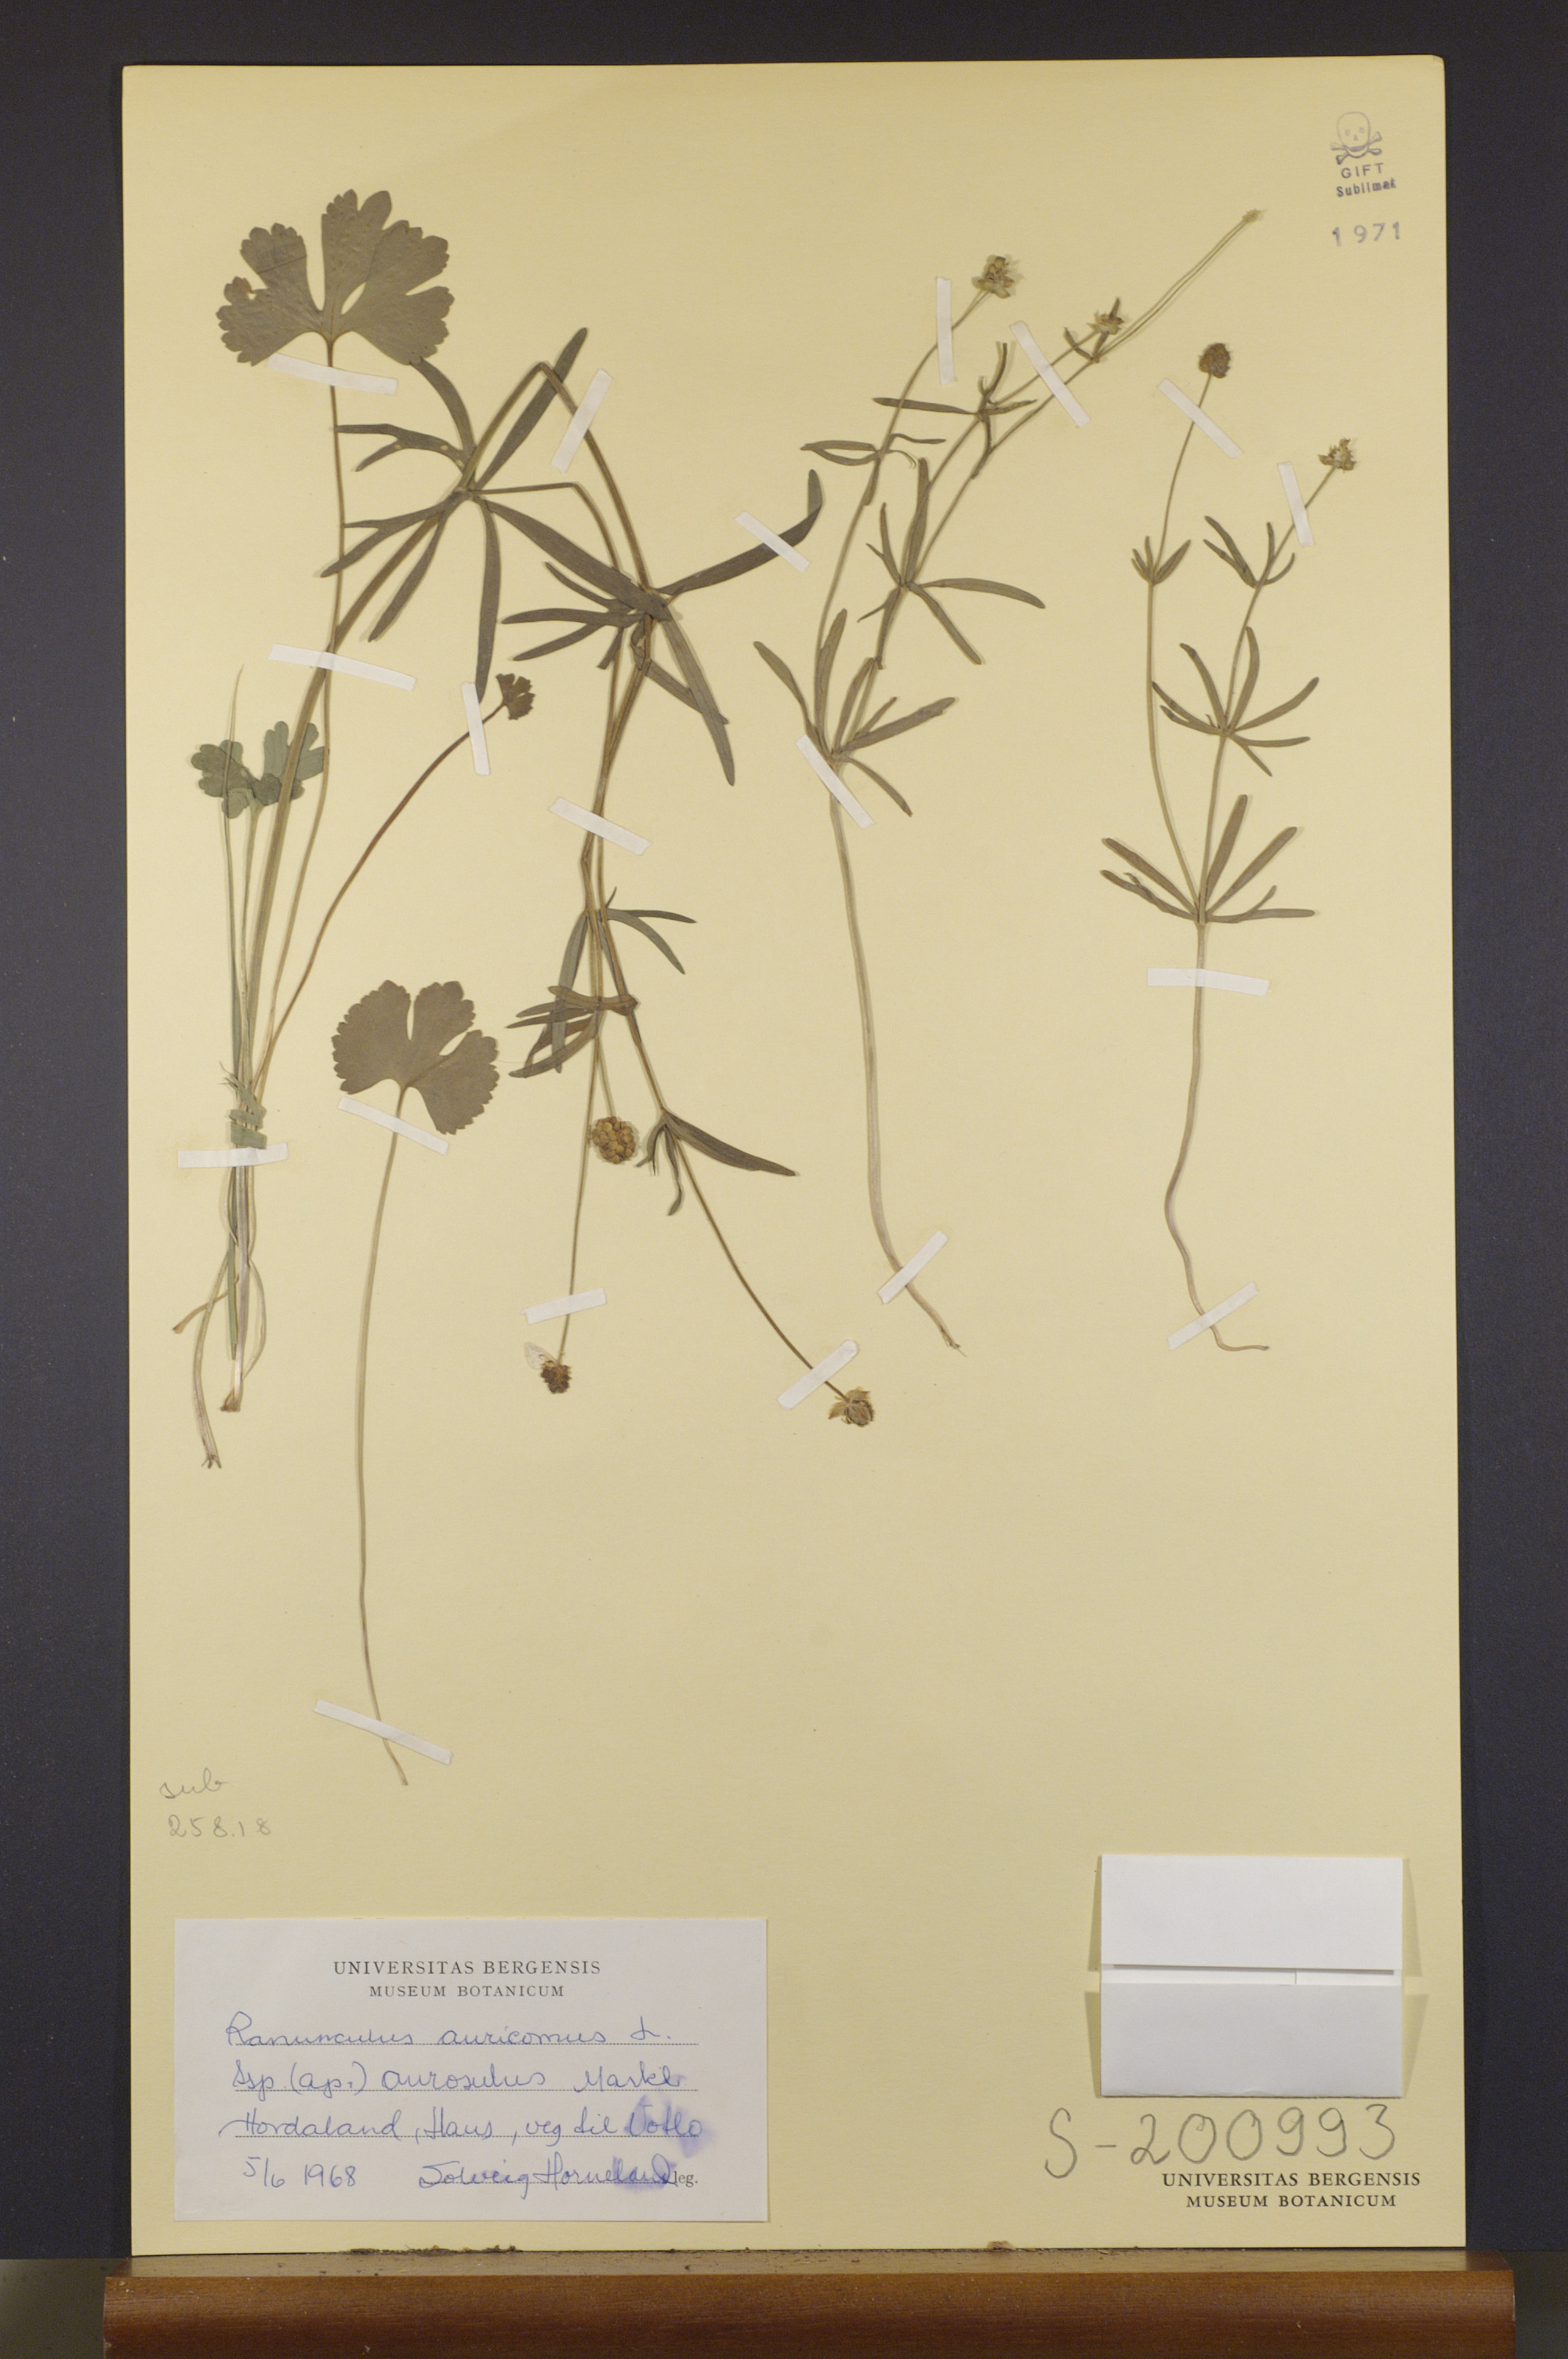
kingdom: Plantae
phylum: Tracheophyta
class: Magnoliopsida
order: Ranunculales
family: Ranunculaceae
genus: Ranunculus
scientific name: Ranunculus aurosulus
